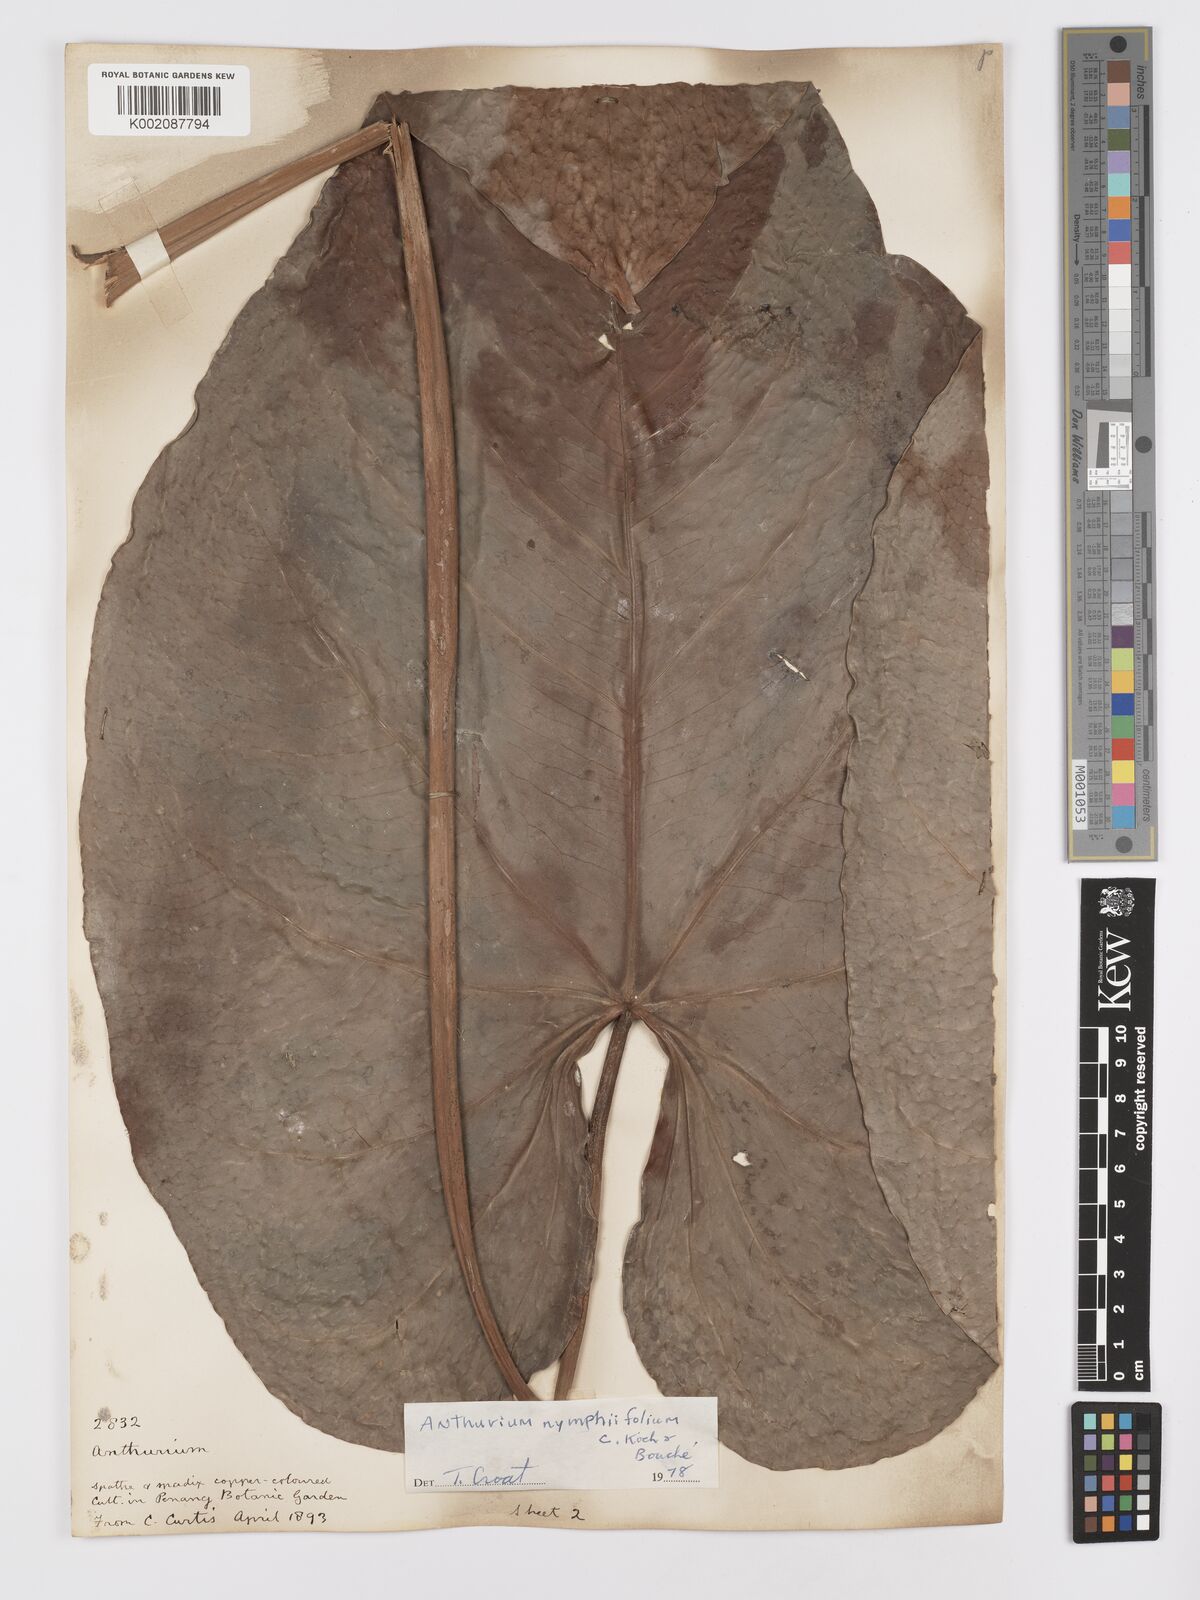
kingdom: Plantae
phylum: Tracheophyta
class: Liliopsida
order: Alismatales
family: Araceae
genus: Anthurium
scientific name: Anthurium nymphaeifolium
